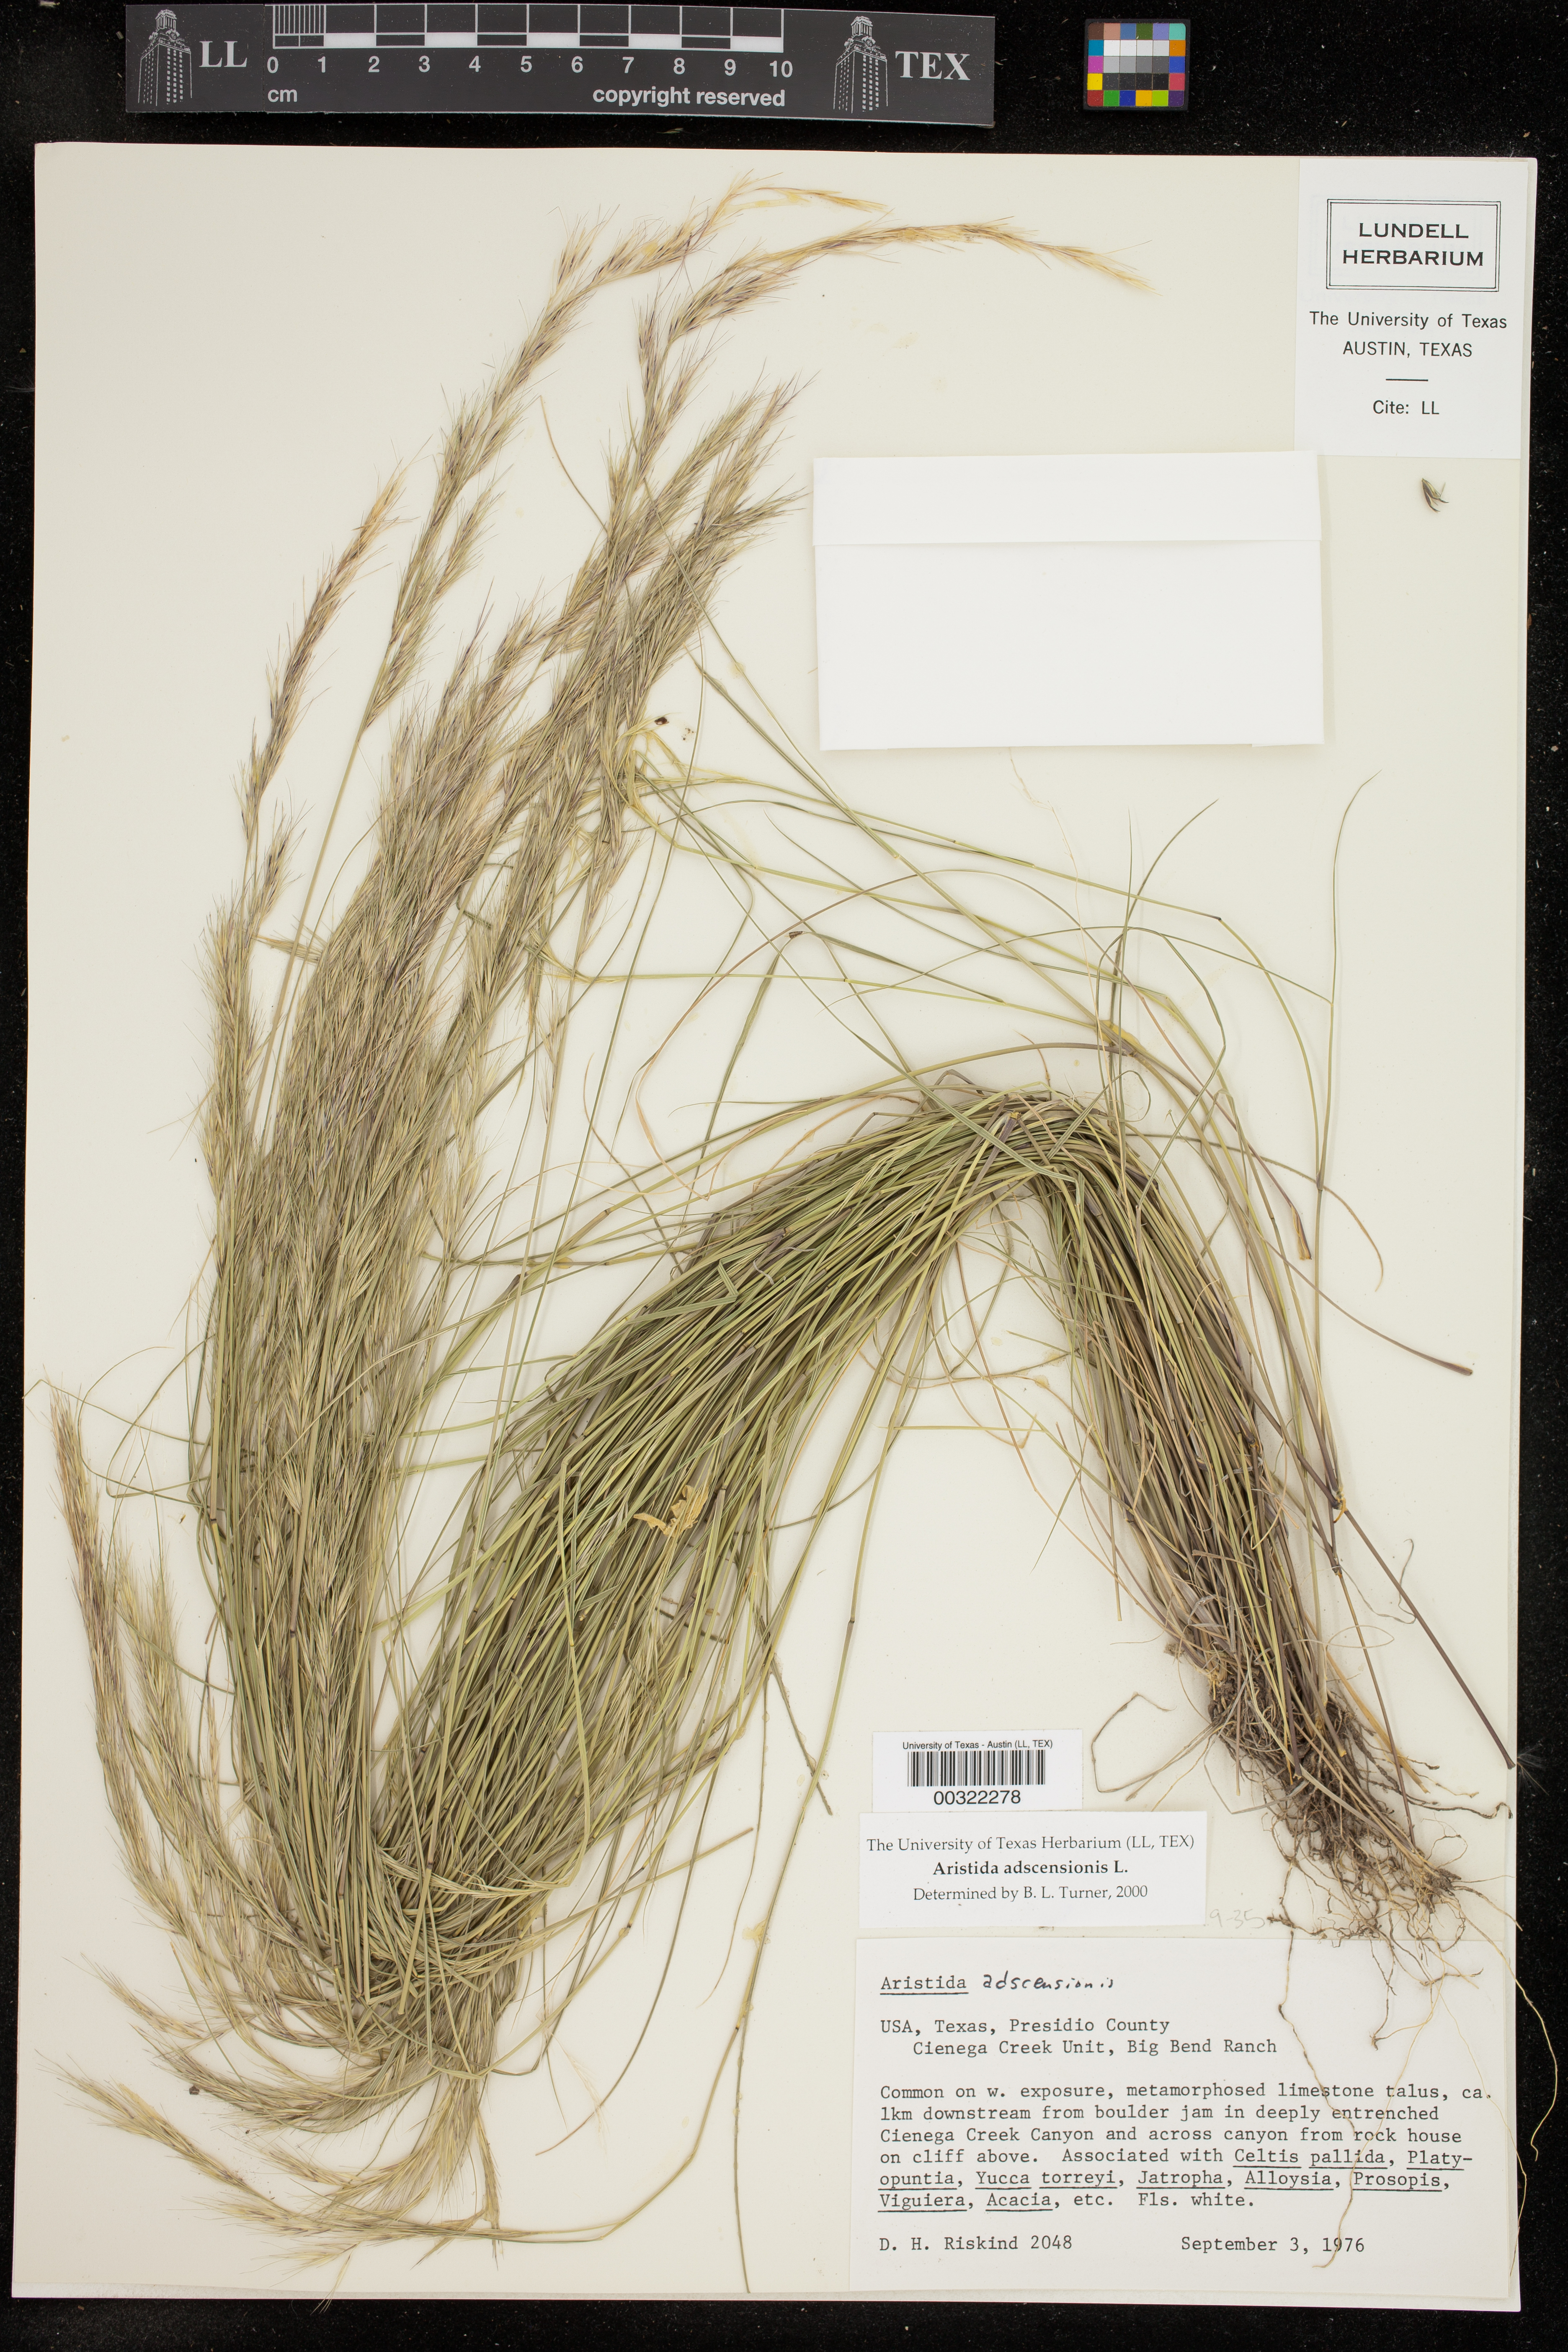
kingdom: Plantae
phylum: Tracheophyta
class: Liliopsida
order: Poales
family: Poaceae
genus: Aristida
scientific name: Aristida adscensionis
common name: Sixweeks threeawn
